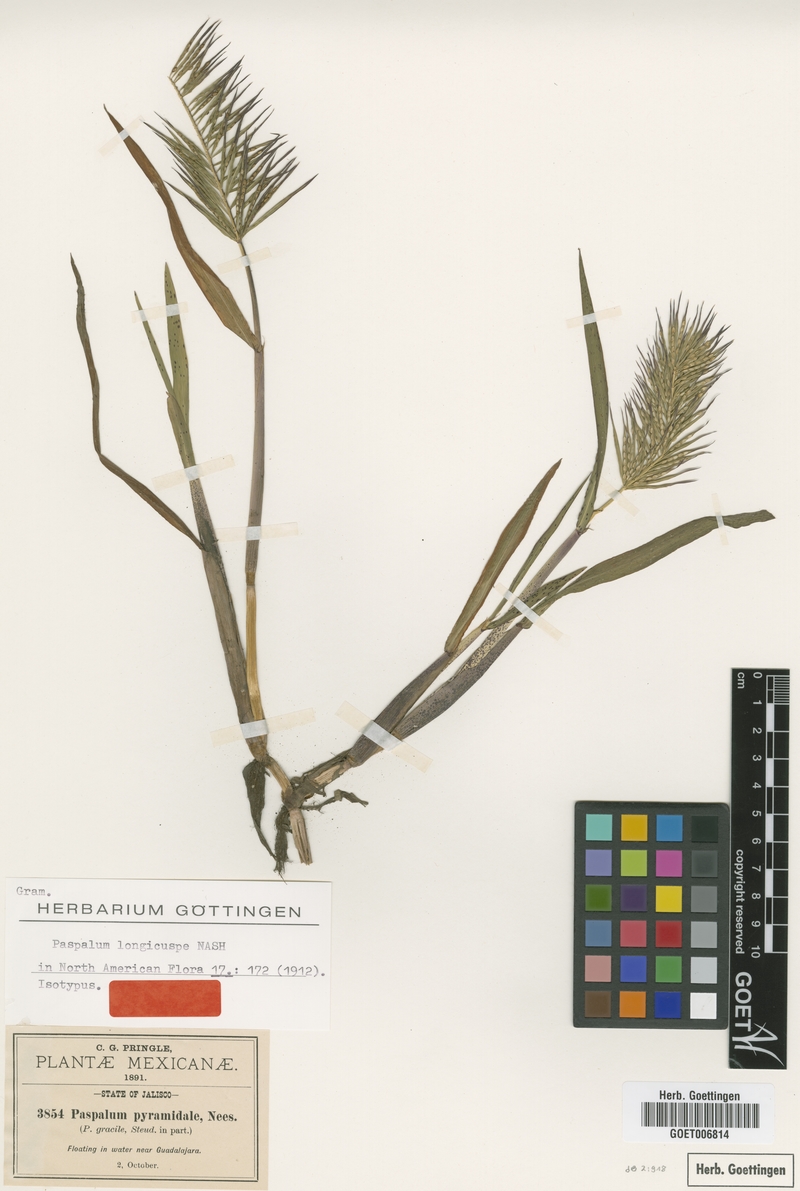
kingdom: Plantae
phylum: Tracheophyta
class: Liliopsida
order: Poales
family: Poaceae
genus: Paspalum
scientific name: Paspalum longicuspe
